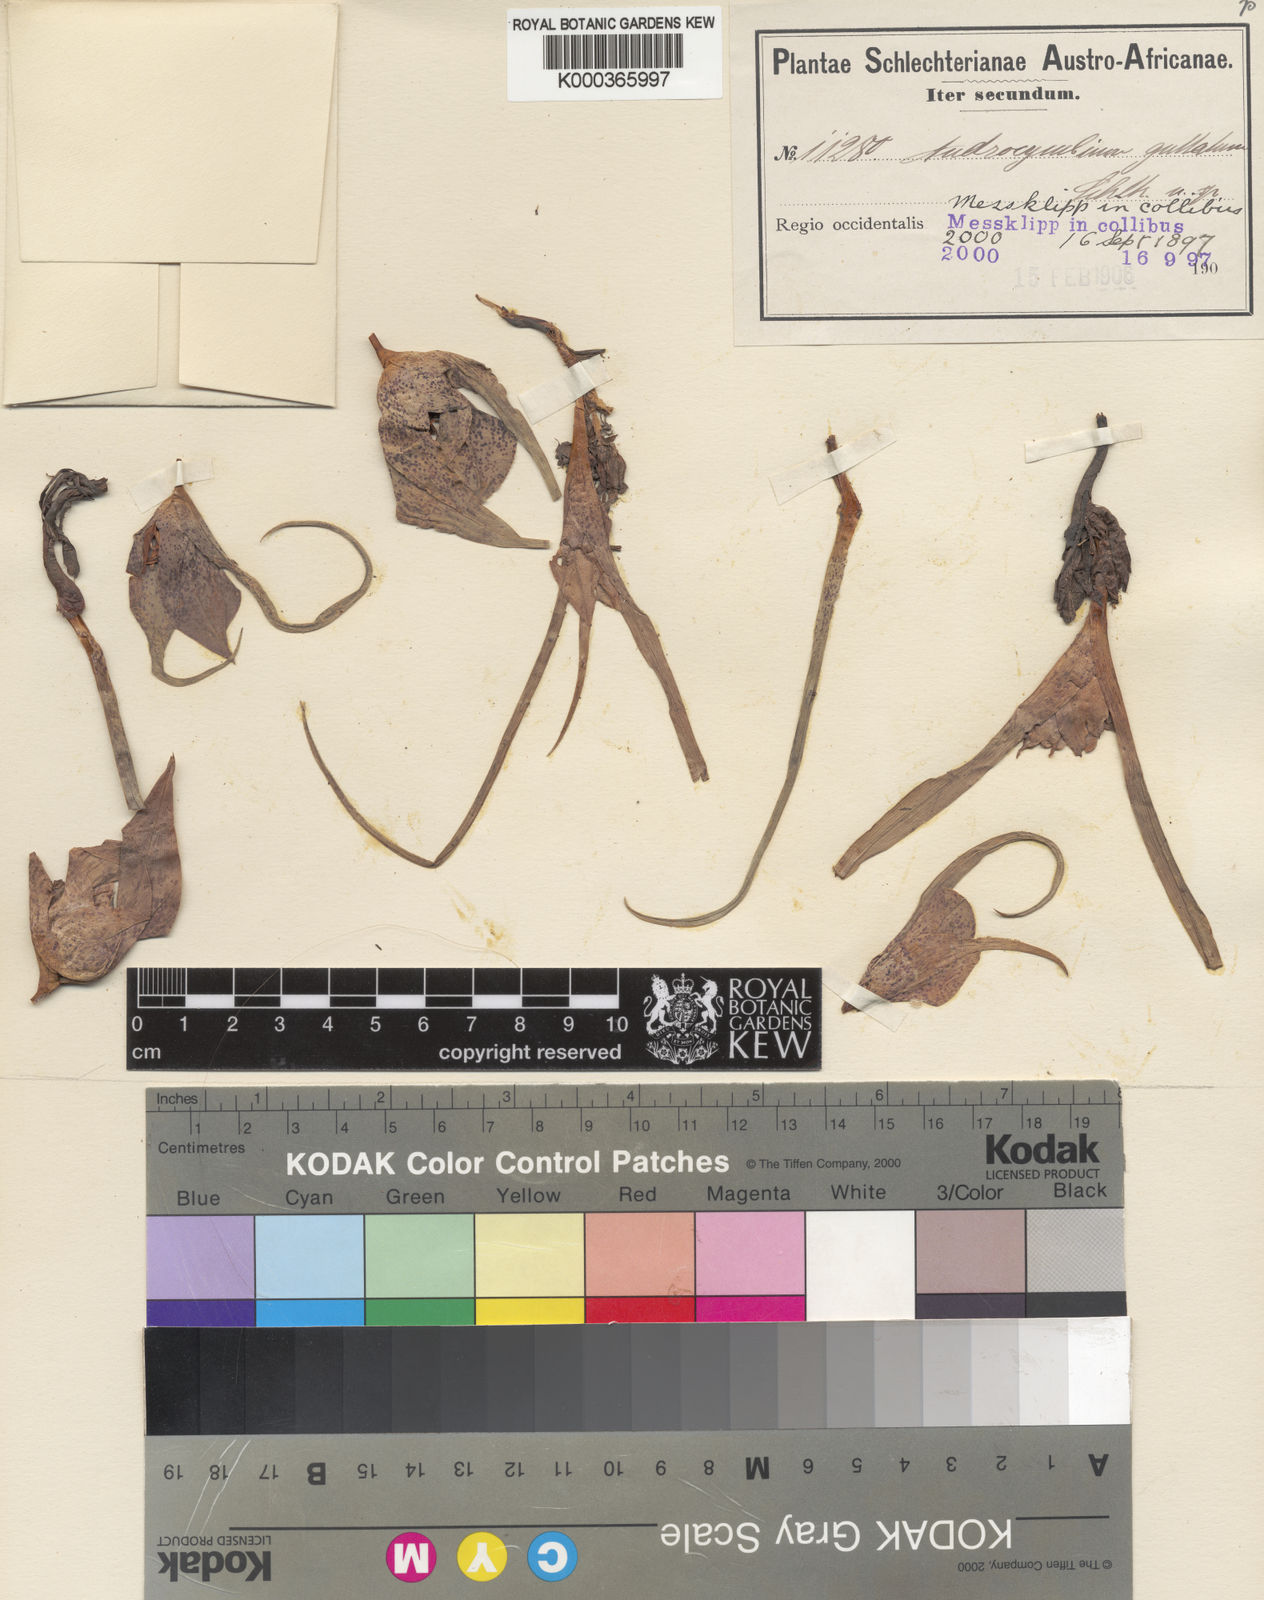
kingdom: Plantae
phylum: Tracheophyta
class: Liliopsida
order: Liliales
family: Colchicaceae
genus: Colchicum
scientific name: Colchicum circinatum
